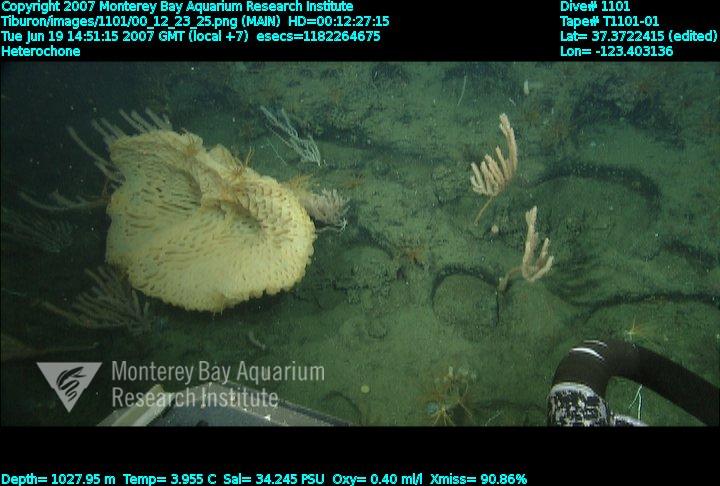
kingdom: Animalia
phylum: Porifera
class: Hexactinellida
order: Sceptrulophora
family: Aphrocallistidae
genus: Heterochone
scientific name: Heterochone
